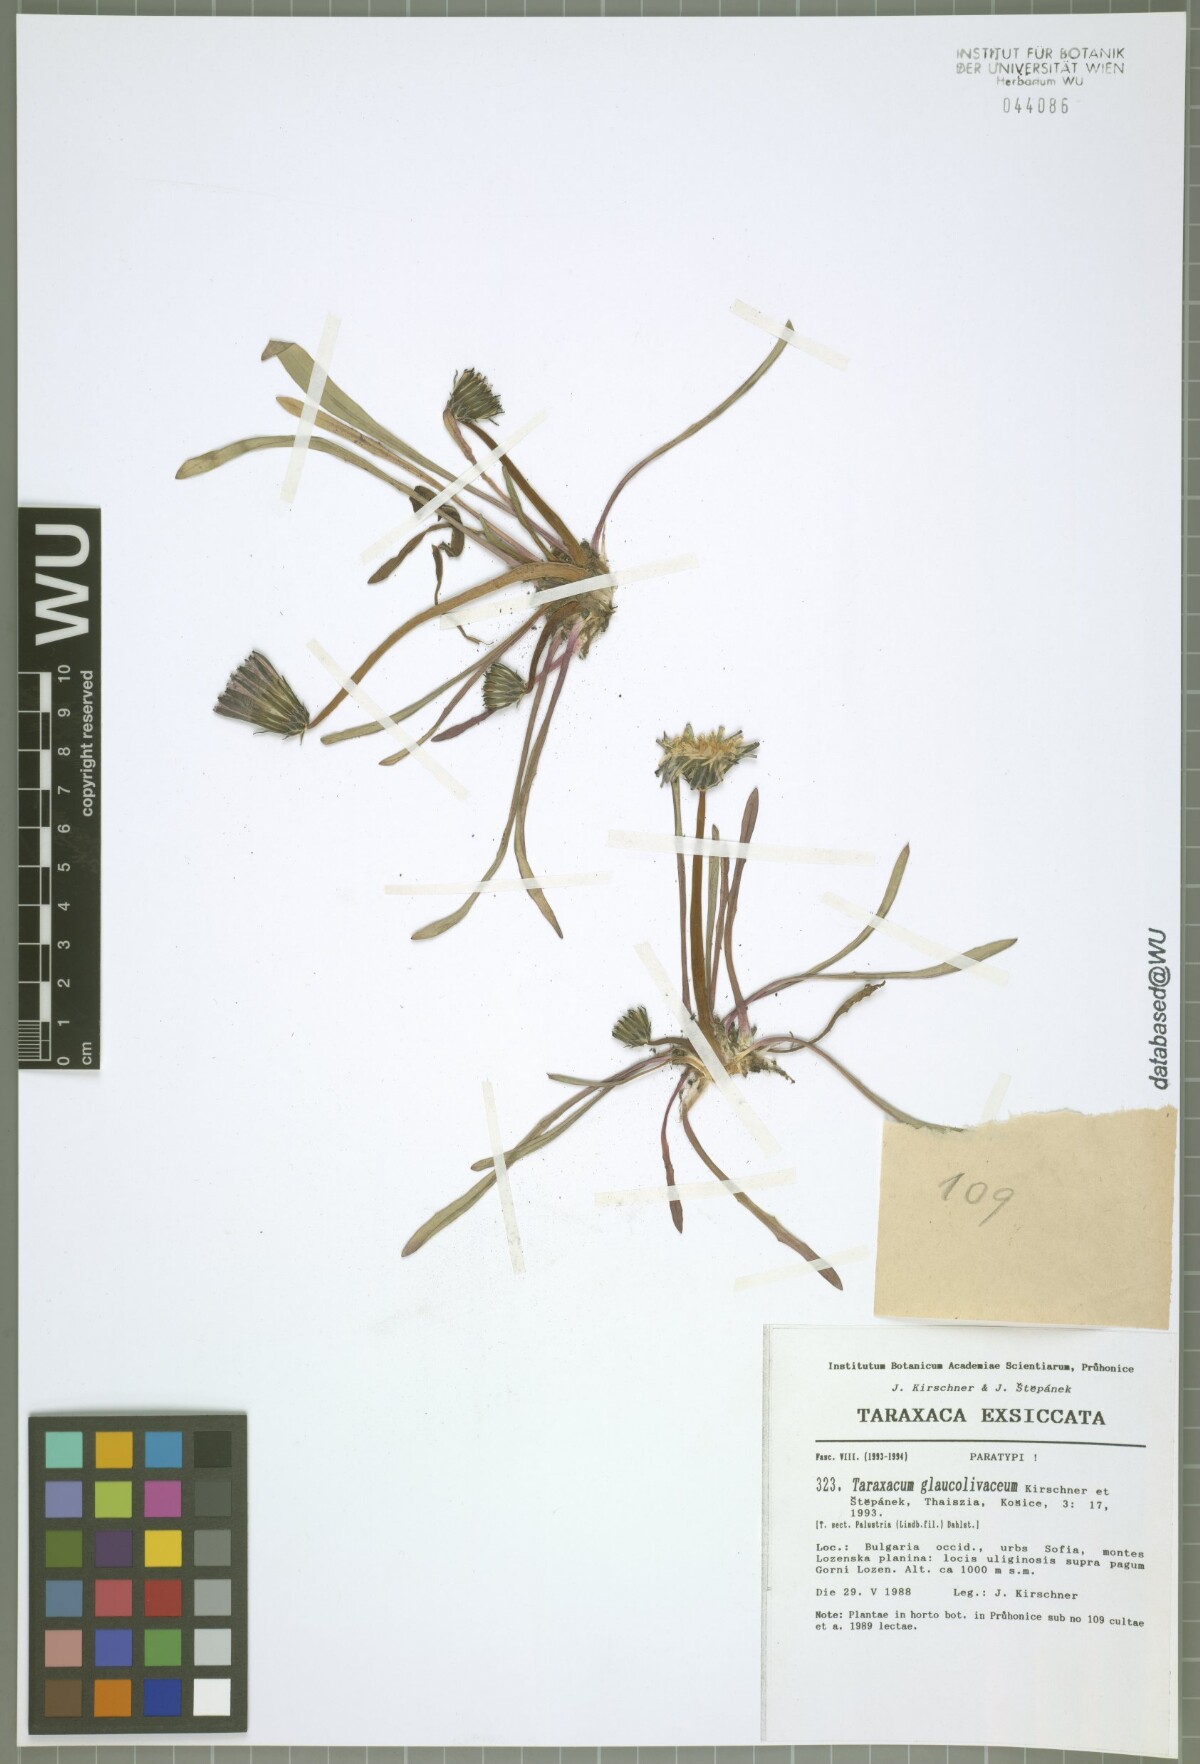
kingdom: Plantae
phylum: Tracheophyta
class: Magnoliopsida
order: Asterales
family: Asteraceae
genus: Taraxacum
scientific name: Taraxacum glaucolivaceum
